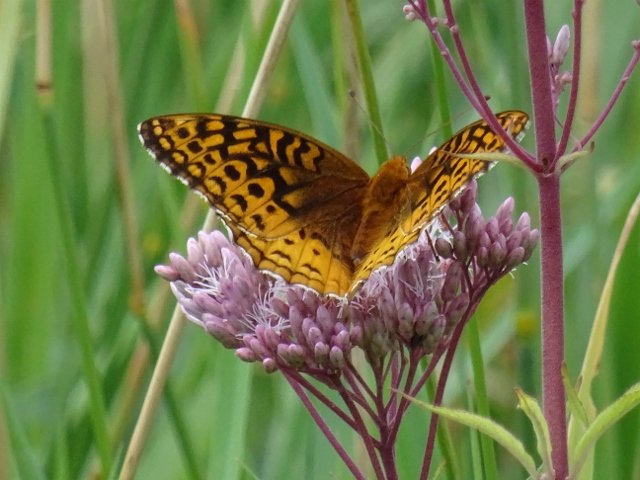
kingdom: Animalia
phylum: Arthropoda
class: Insecta
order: Lepidoptera
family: Nymphalidae
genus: Speyeria
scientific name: Speyeria cybele
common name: Great Spangled Fritillary
